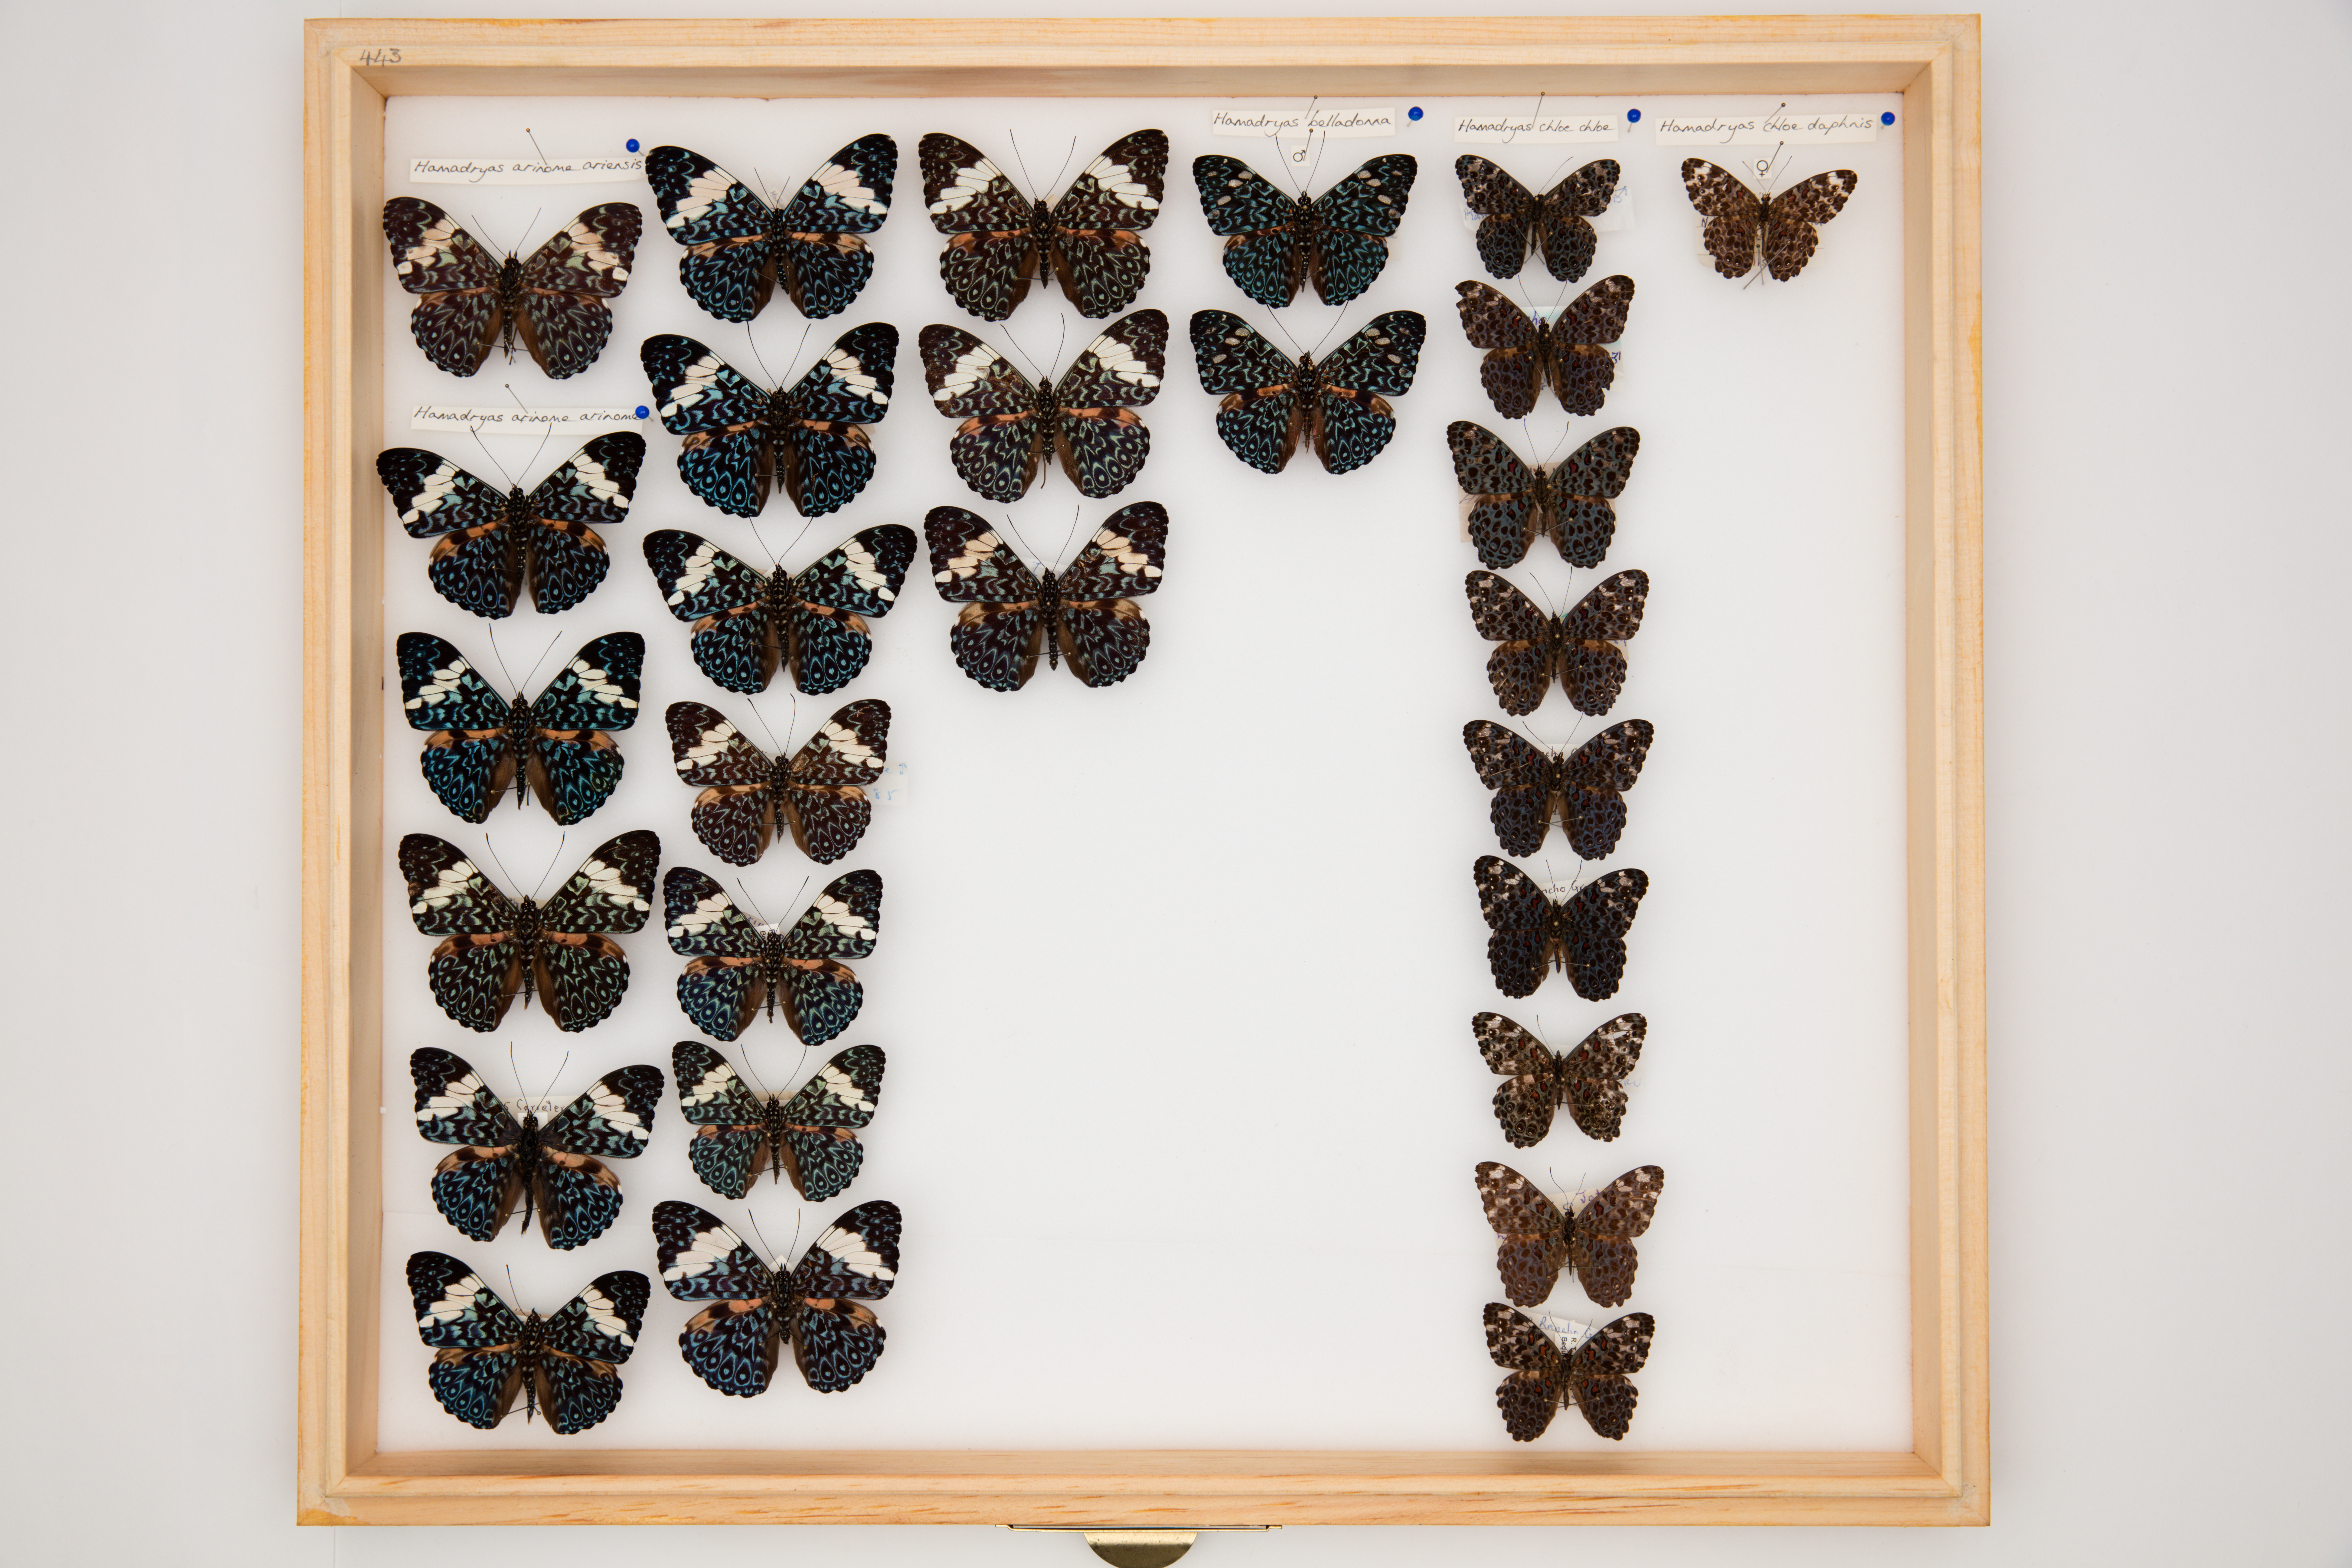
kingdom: Animalia
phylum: Arthropoda
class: Insecta
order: Lepidoptera
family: Nymphalidae
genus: Hamadryas
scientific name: Hamadryas chloe
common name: Amazon cracker
